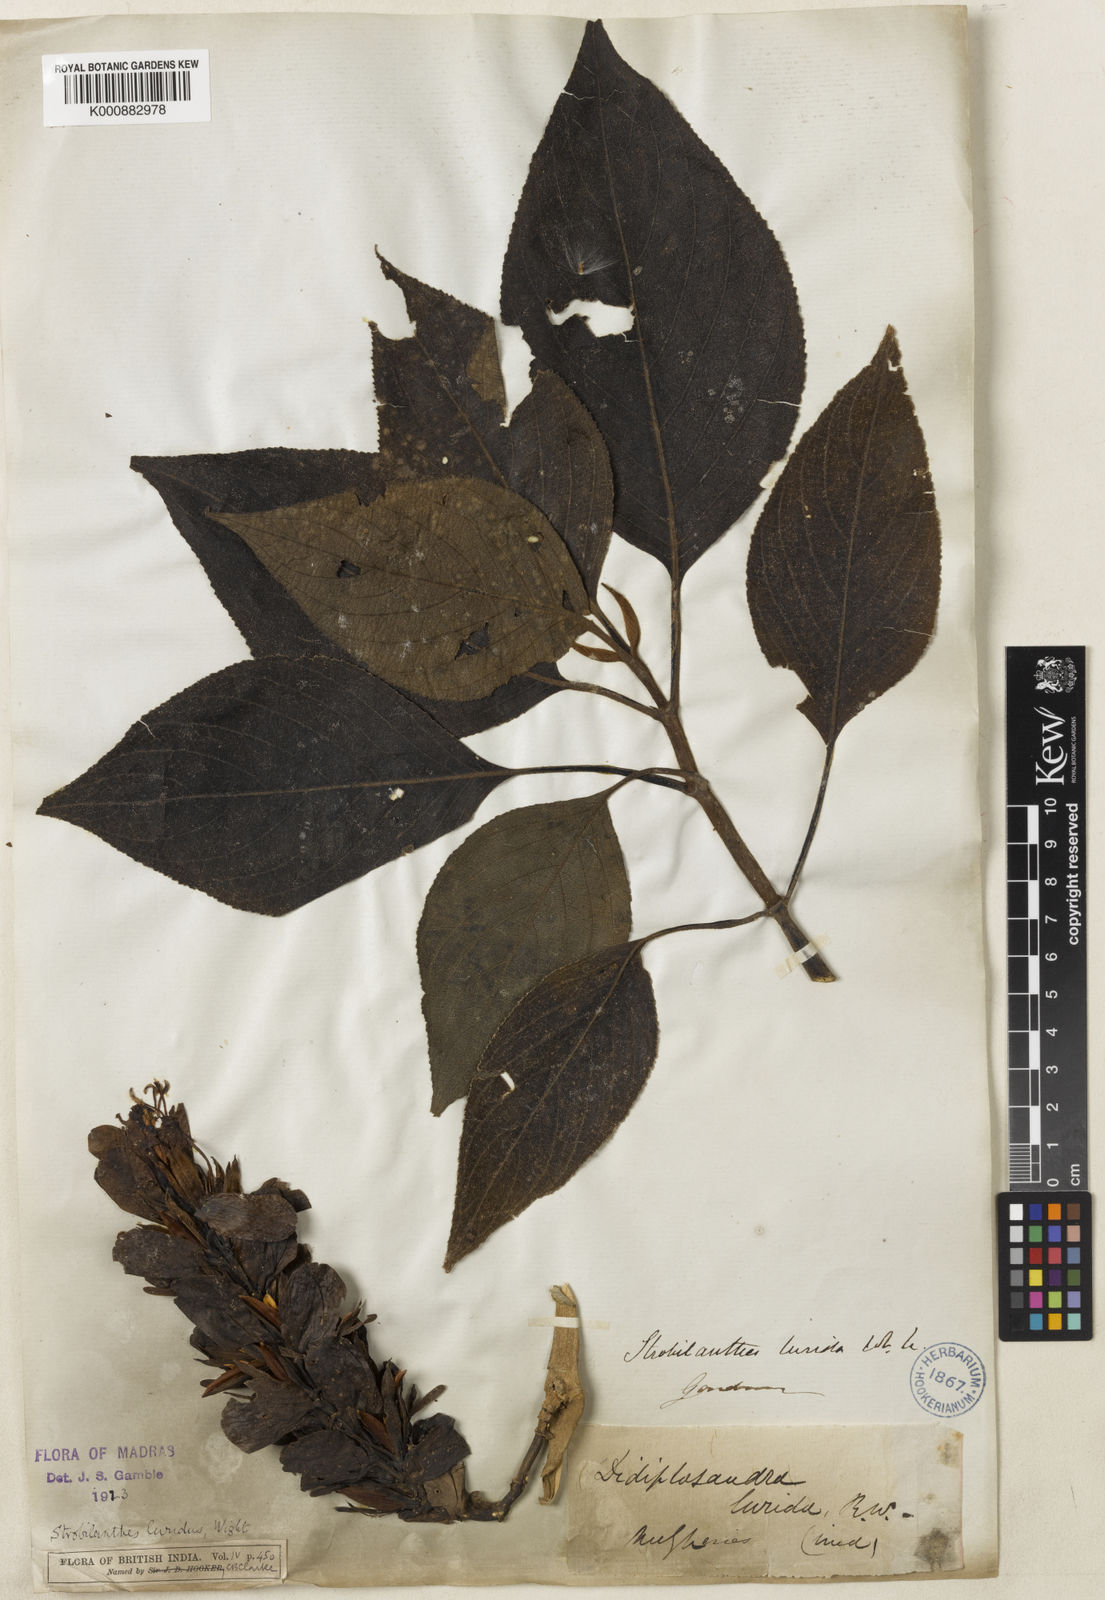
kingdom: Plantae
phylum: Tracheophyta
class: Magnoliopsida
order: Lamiales
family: Acanthaceae
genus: Strobilanthes
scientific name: Strobilanthes lurida
